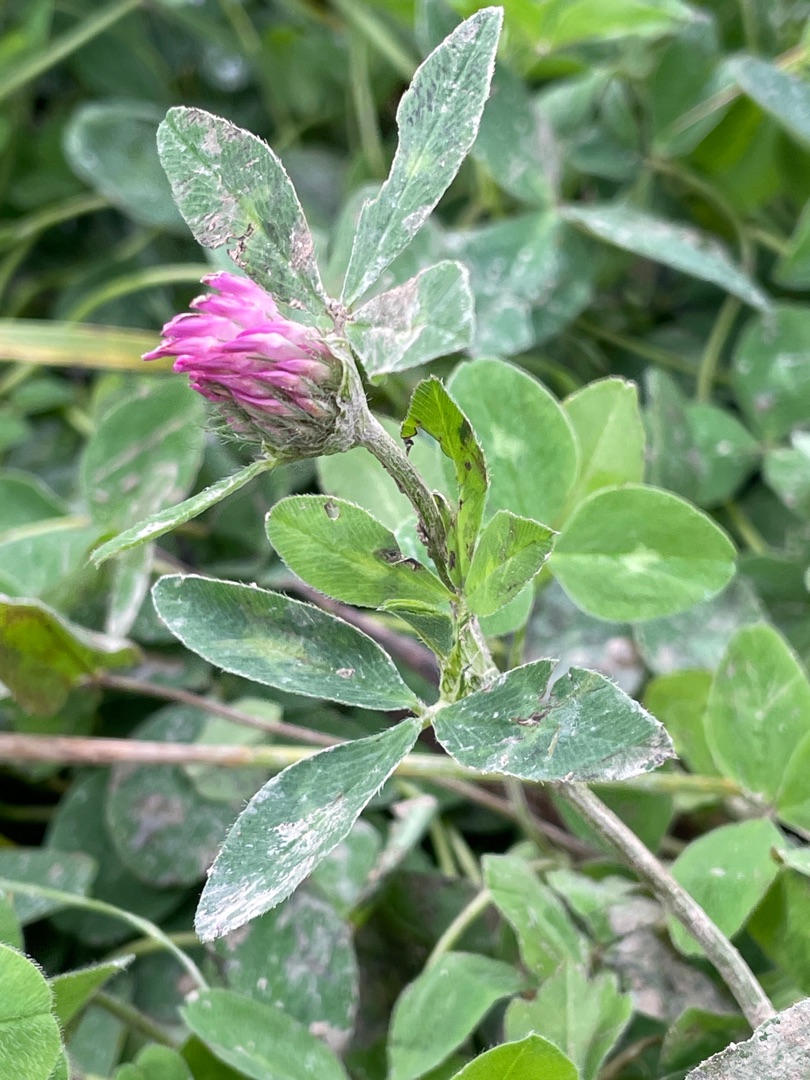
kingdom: Plantae
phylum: Tracheophyta
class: Magnoliopsida
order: Fabales
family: Fabaceae
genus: Trifolium
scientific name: Trifolium pratense
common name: Rød-kløver
